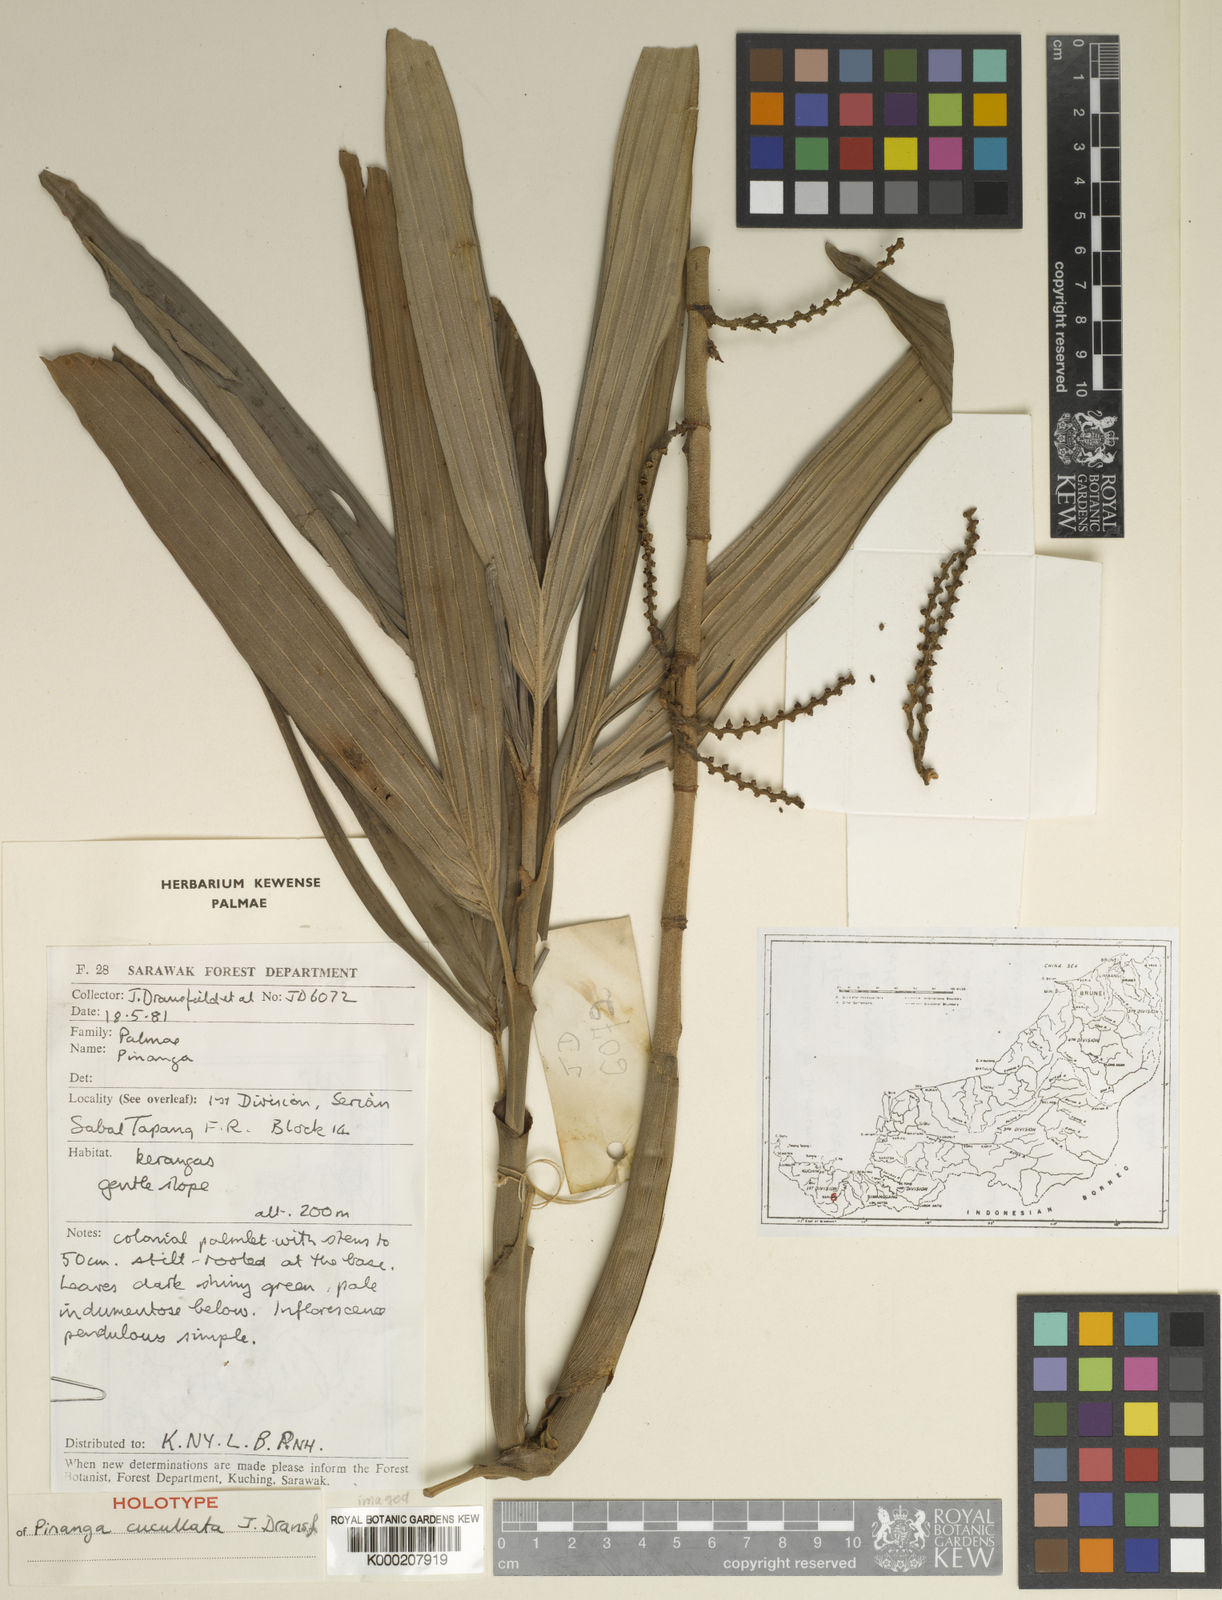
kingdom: Plantae
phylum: Tracheophyta
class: Liliopsida
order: Arecales
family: Arecaceae
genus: Pinanga
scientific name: Pinanga cucullata
